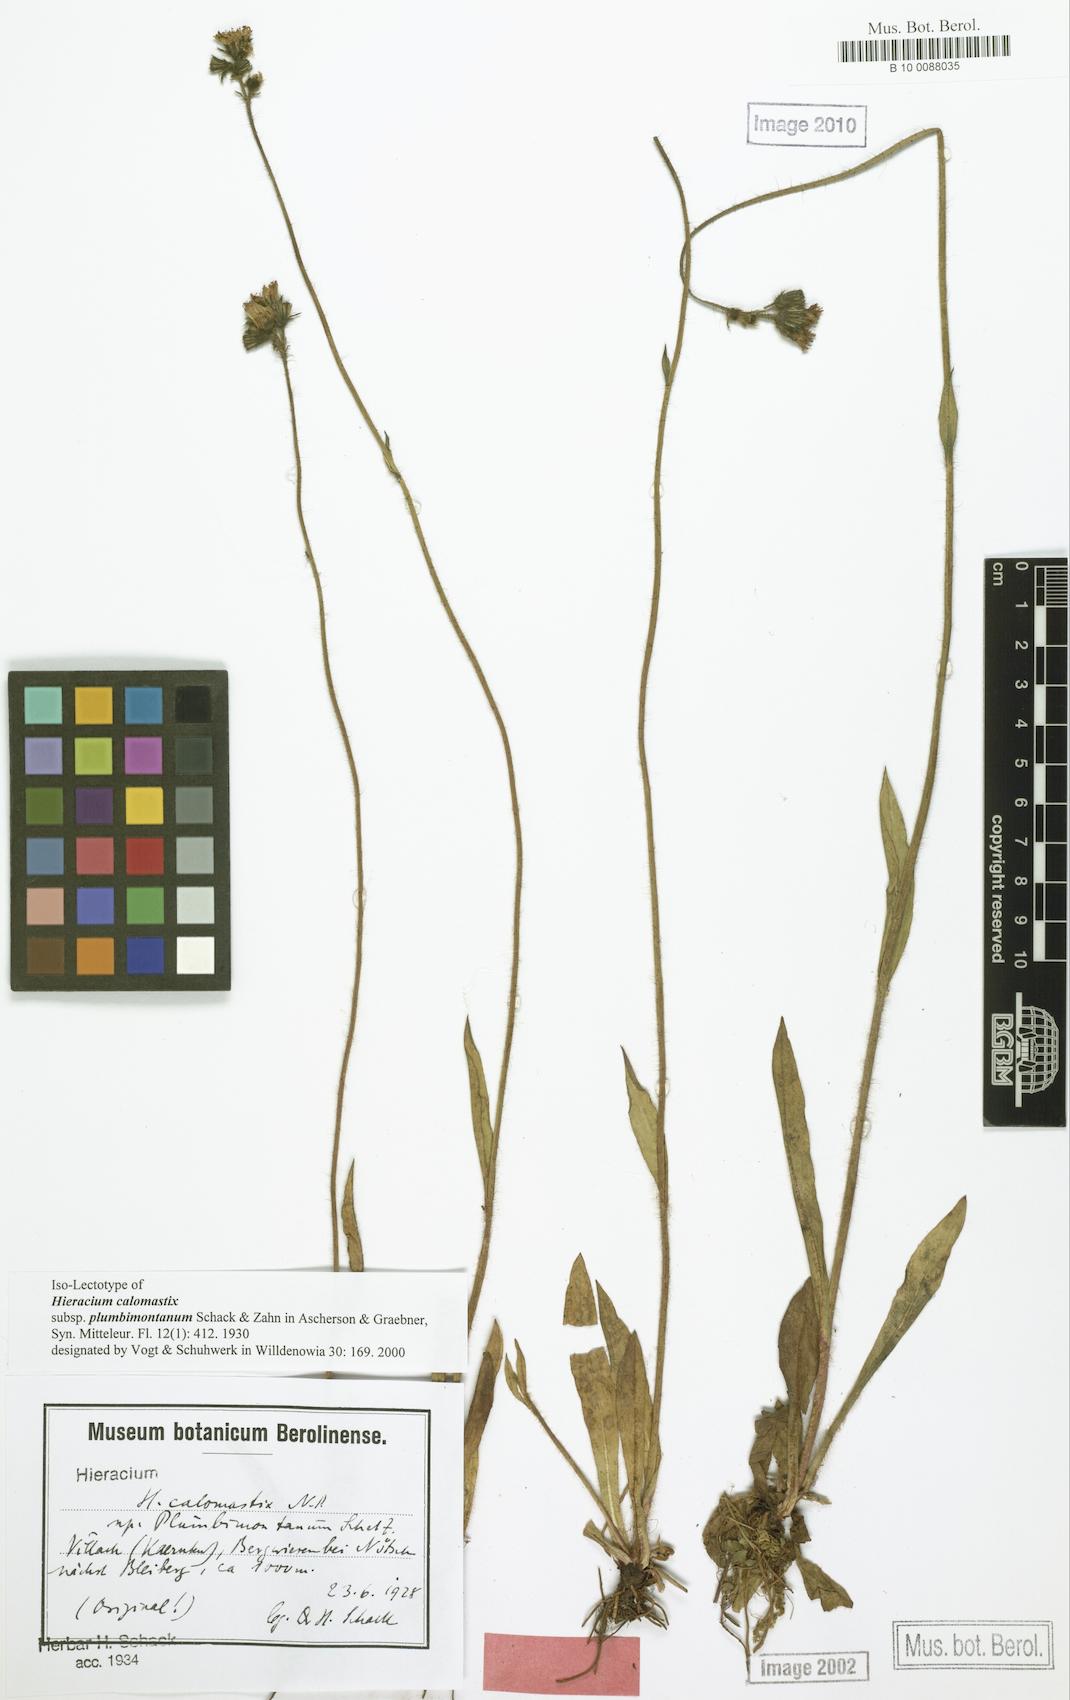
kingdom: Plantae
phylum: Tracheophyta
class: Magnoliopsida
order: Asterales
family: Asteraceae
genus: Pilosella
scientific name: Pilosella calomastix
